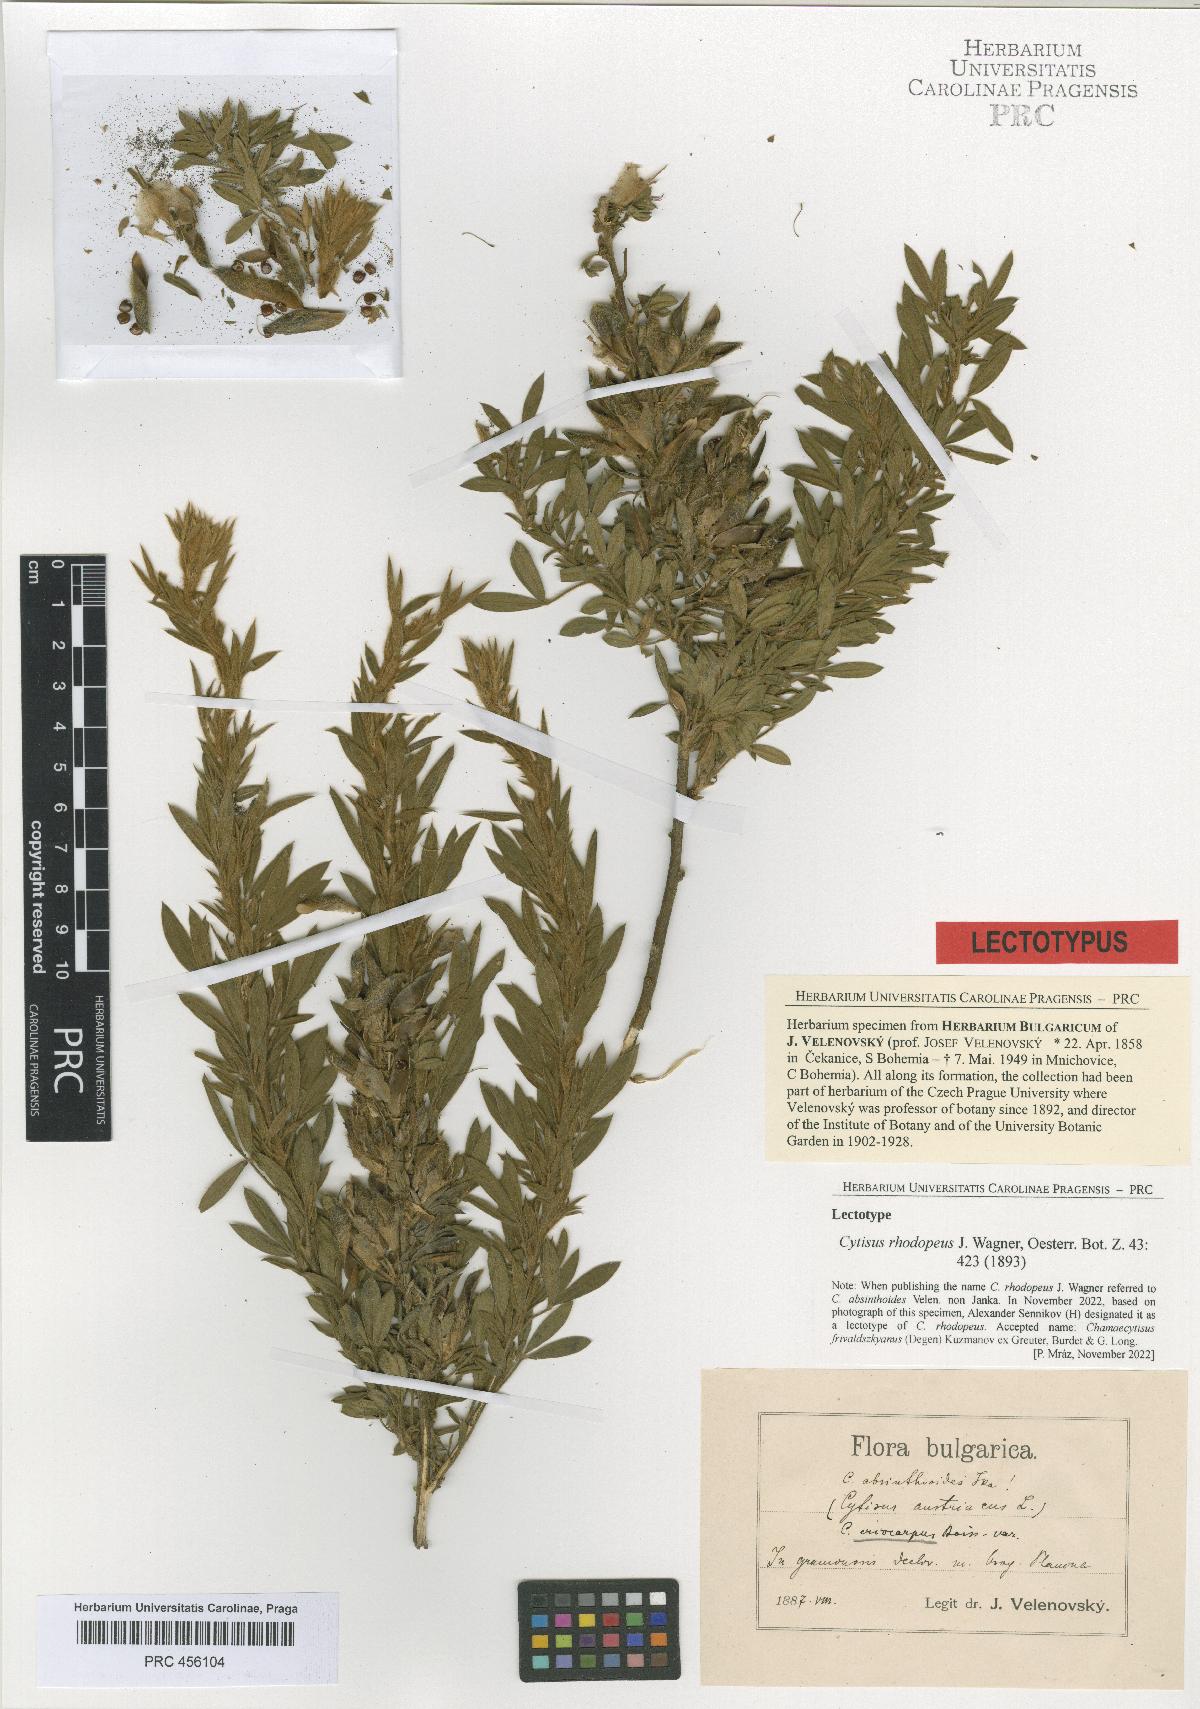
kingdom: Plantae
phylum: Tracheophyta
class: Magnoliopsida
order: Fabales
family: Fabaceae
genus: Chamaecytisus
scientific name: Chamaecytisus eriocarpus
